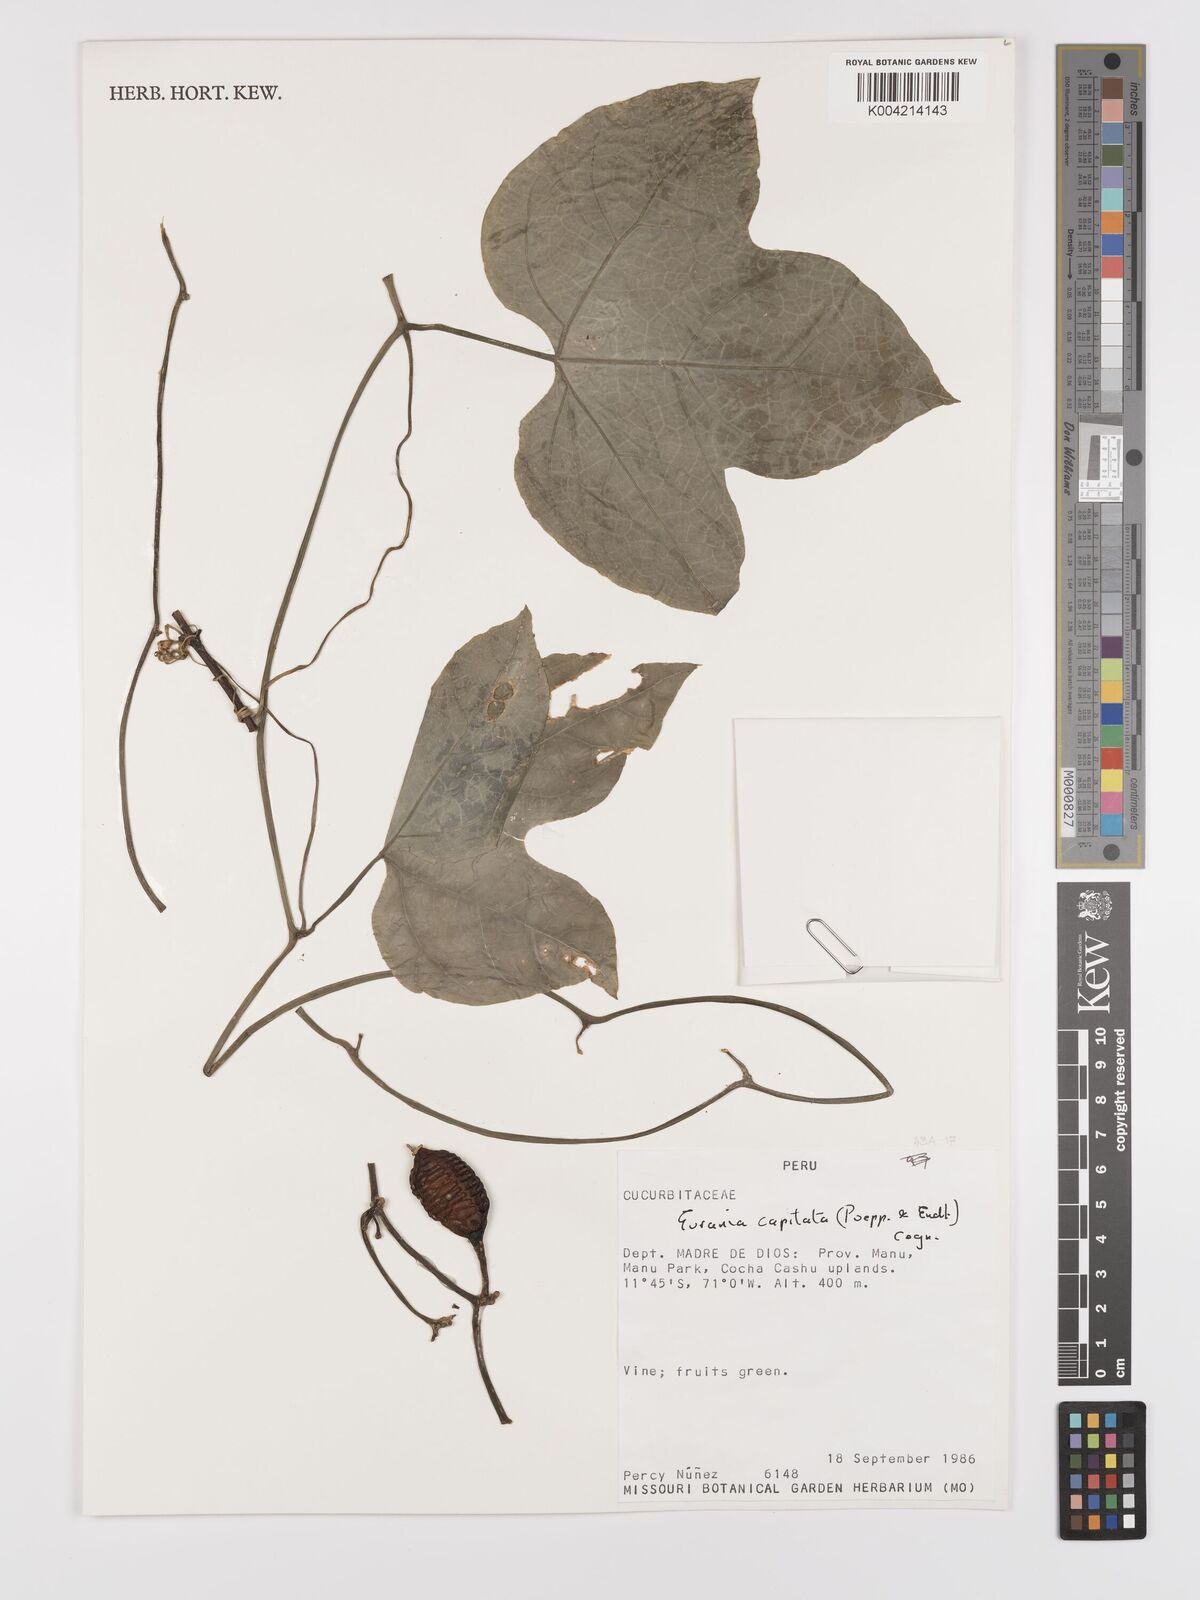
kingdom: Plantae
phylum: Tracheophyta
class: Magnoliopsida
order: Cucurbitales
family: Cucurbitaceae
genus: Gurania
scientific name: Gurania capitata
